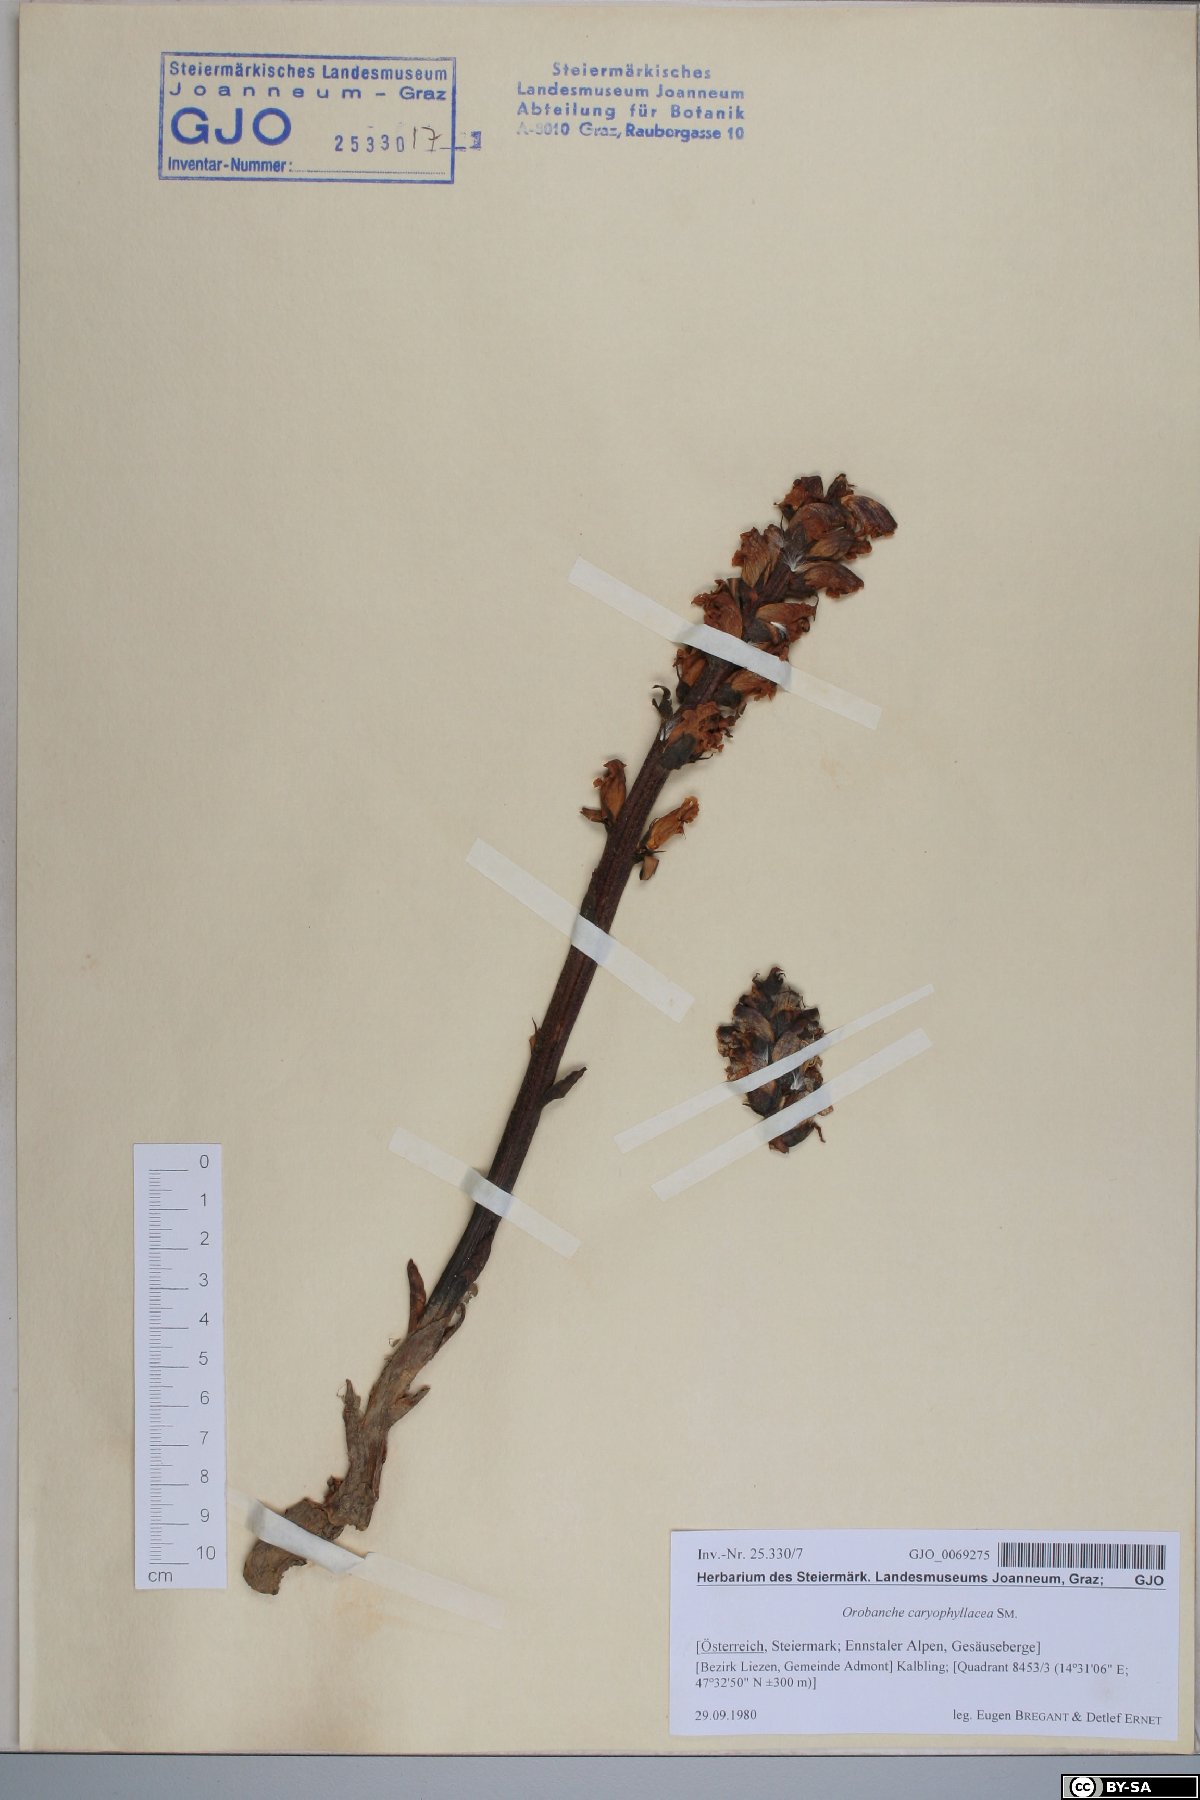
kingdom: Plantae
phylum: Tracheophyta
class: Magnoliopsida
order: Lamiales
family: Orobanchaceae
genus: Orobanche
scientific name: Orobanche caryophyllacea
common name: Bedstraw broomrape
